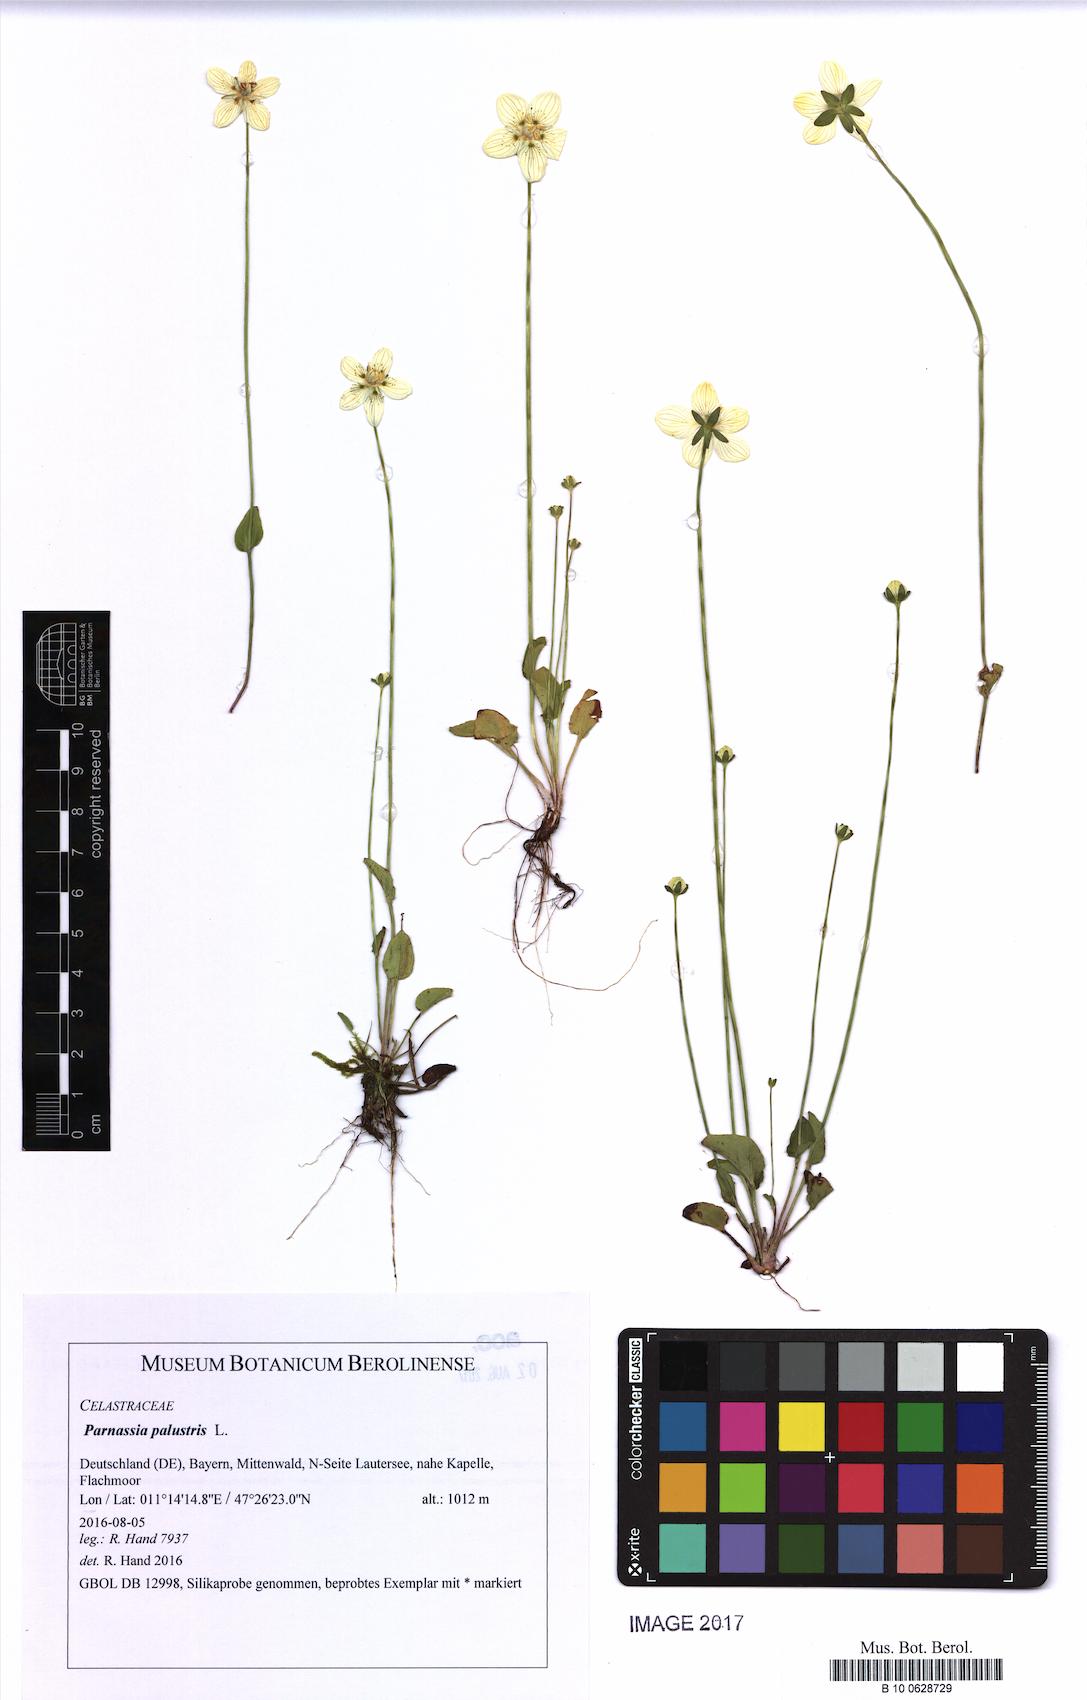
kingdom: Plantae
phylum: Tracheophyta
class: Magnoliopsida
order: Celastrales
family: Parnassiaceae
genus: Parnassia
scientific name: Parnassia palustris
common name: Grass-of-parnassus
